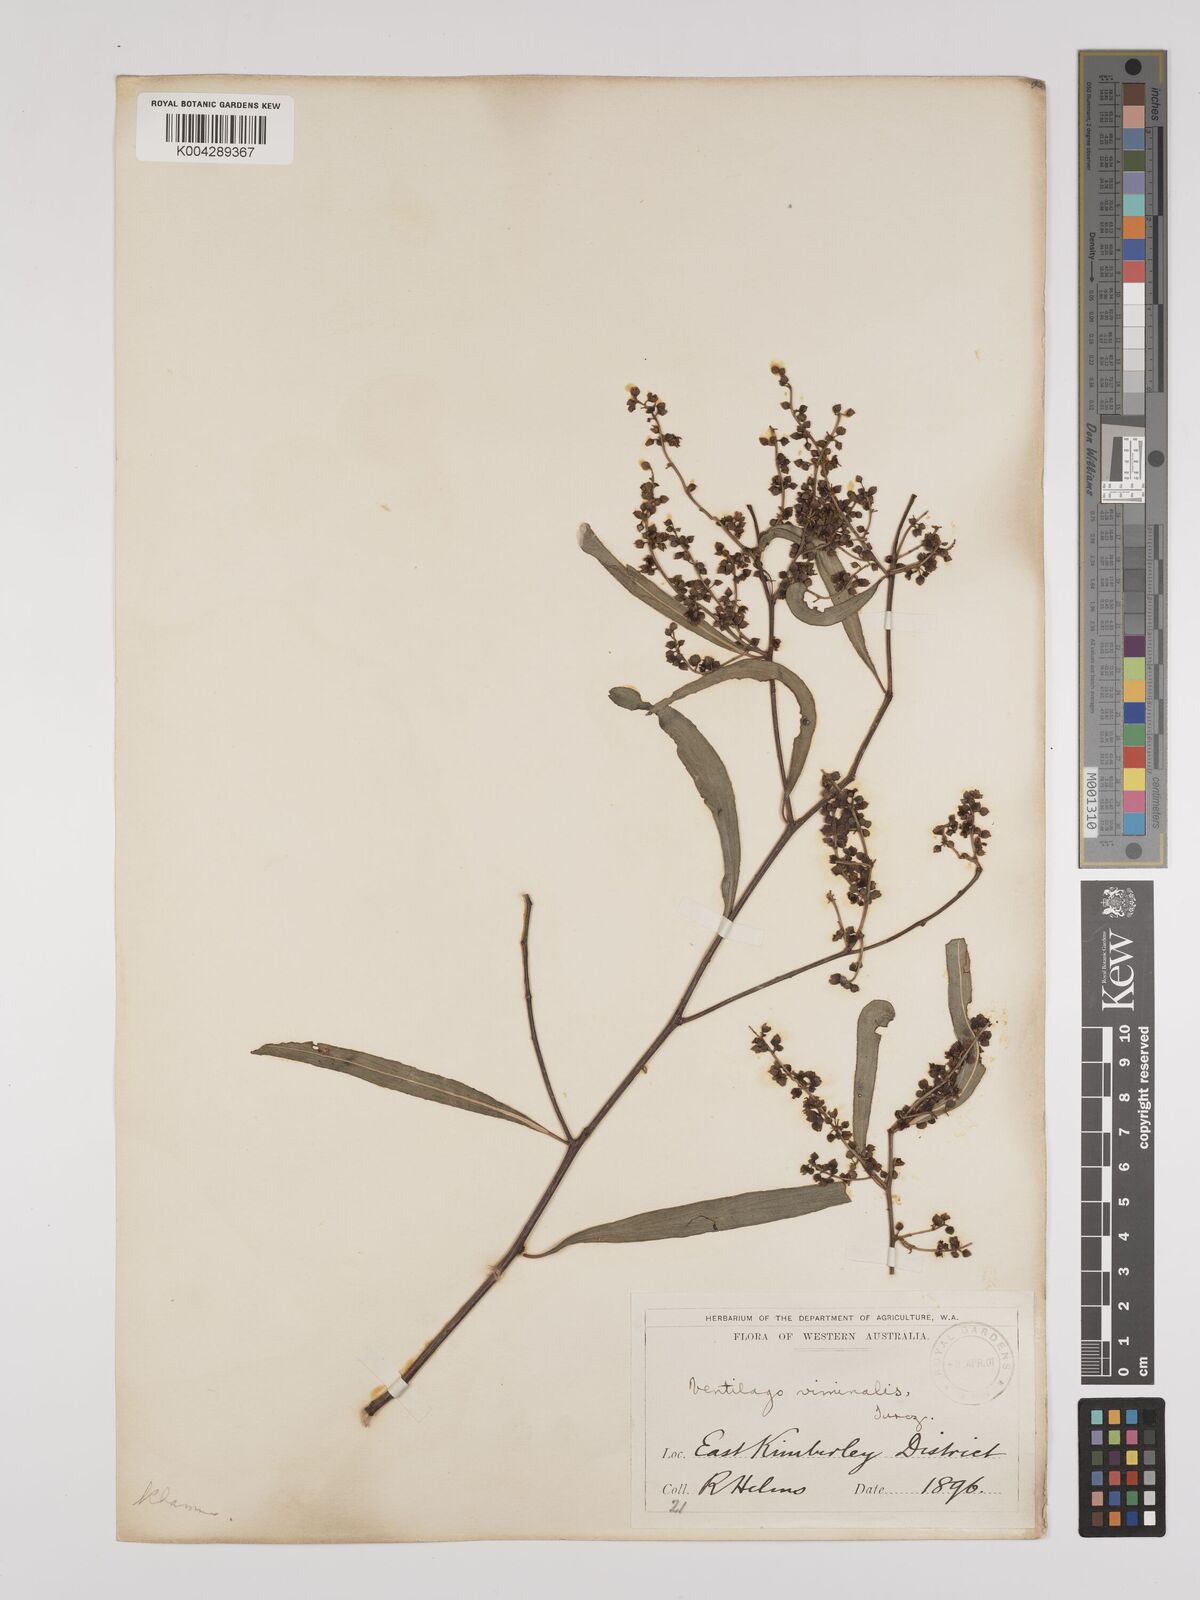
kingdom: Plantae
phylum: Tracheophyta
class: Magnoliopsida
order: Rosales
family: Rhamnaceae
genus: Ventilago
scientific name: Ventilago viminalis
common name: Medicine-bark
